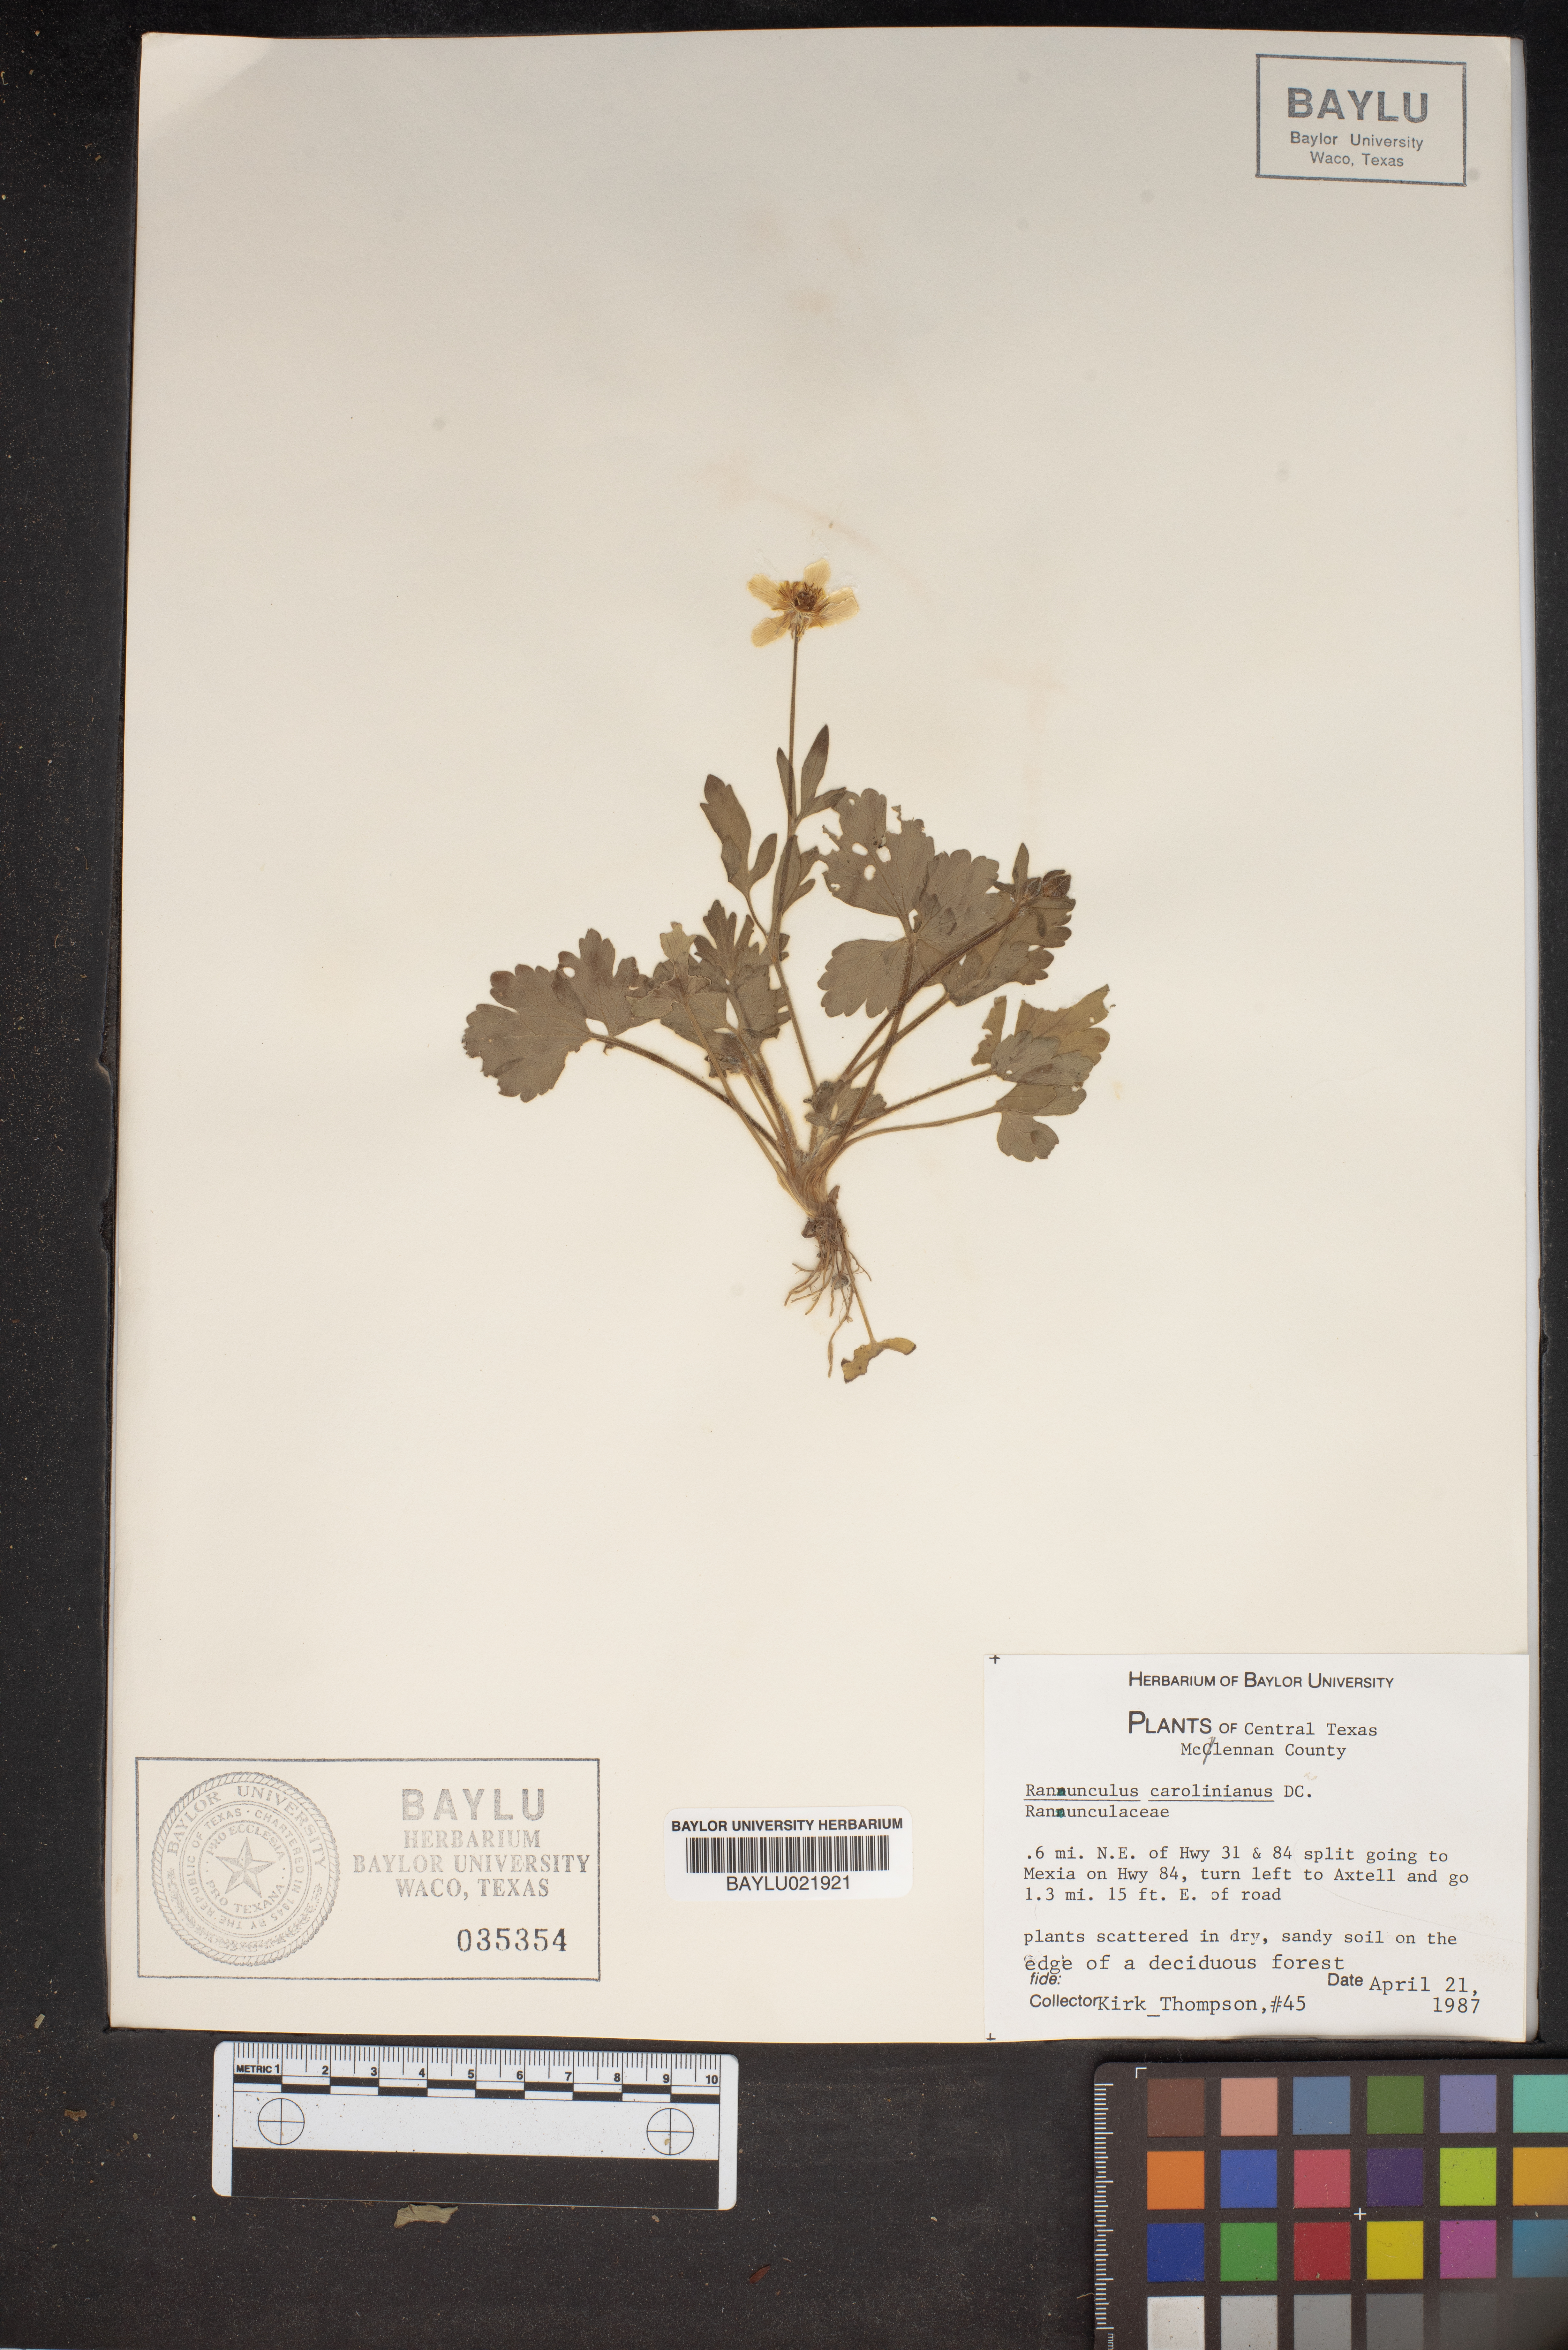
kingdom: Plantae
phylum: Tracheophyta
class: Magnoliopsida
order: Ranunculales
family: Ranunculaceae
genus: Ranunculus
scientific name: Ranunculus hispidus
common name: Bristly buttercup
